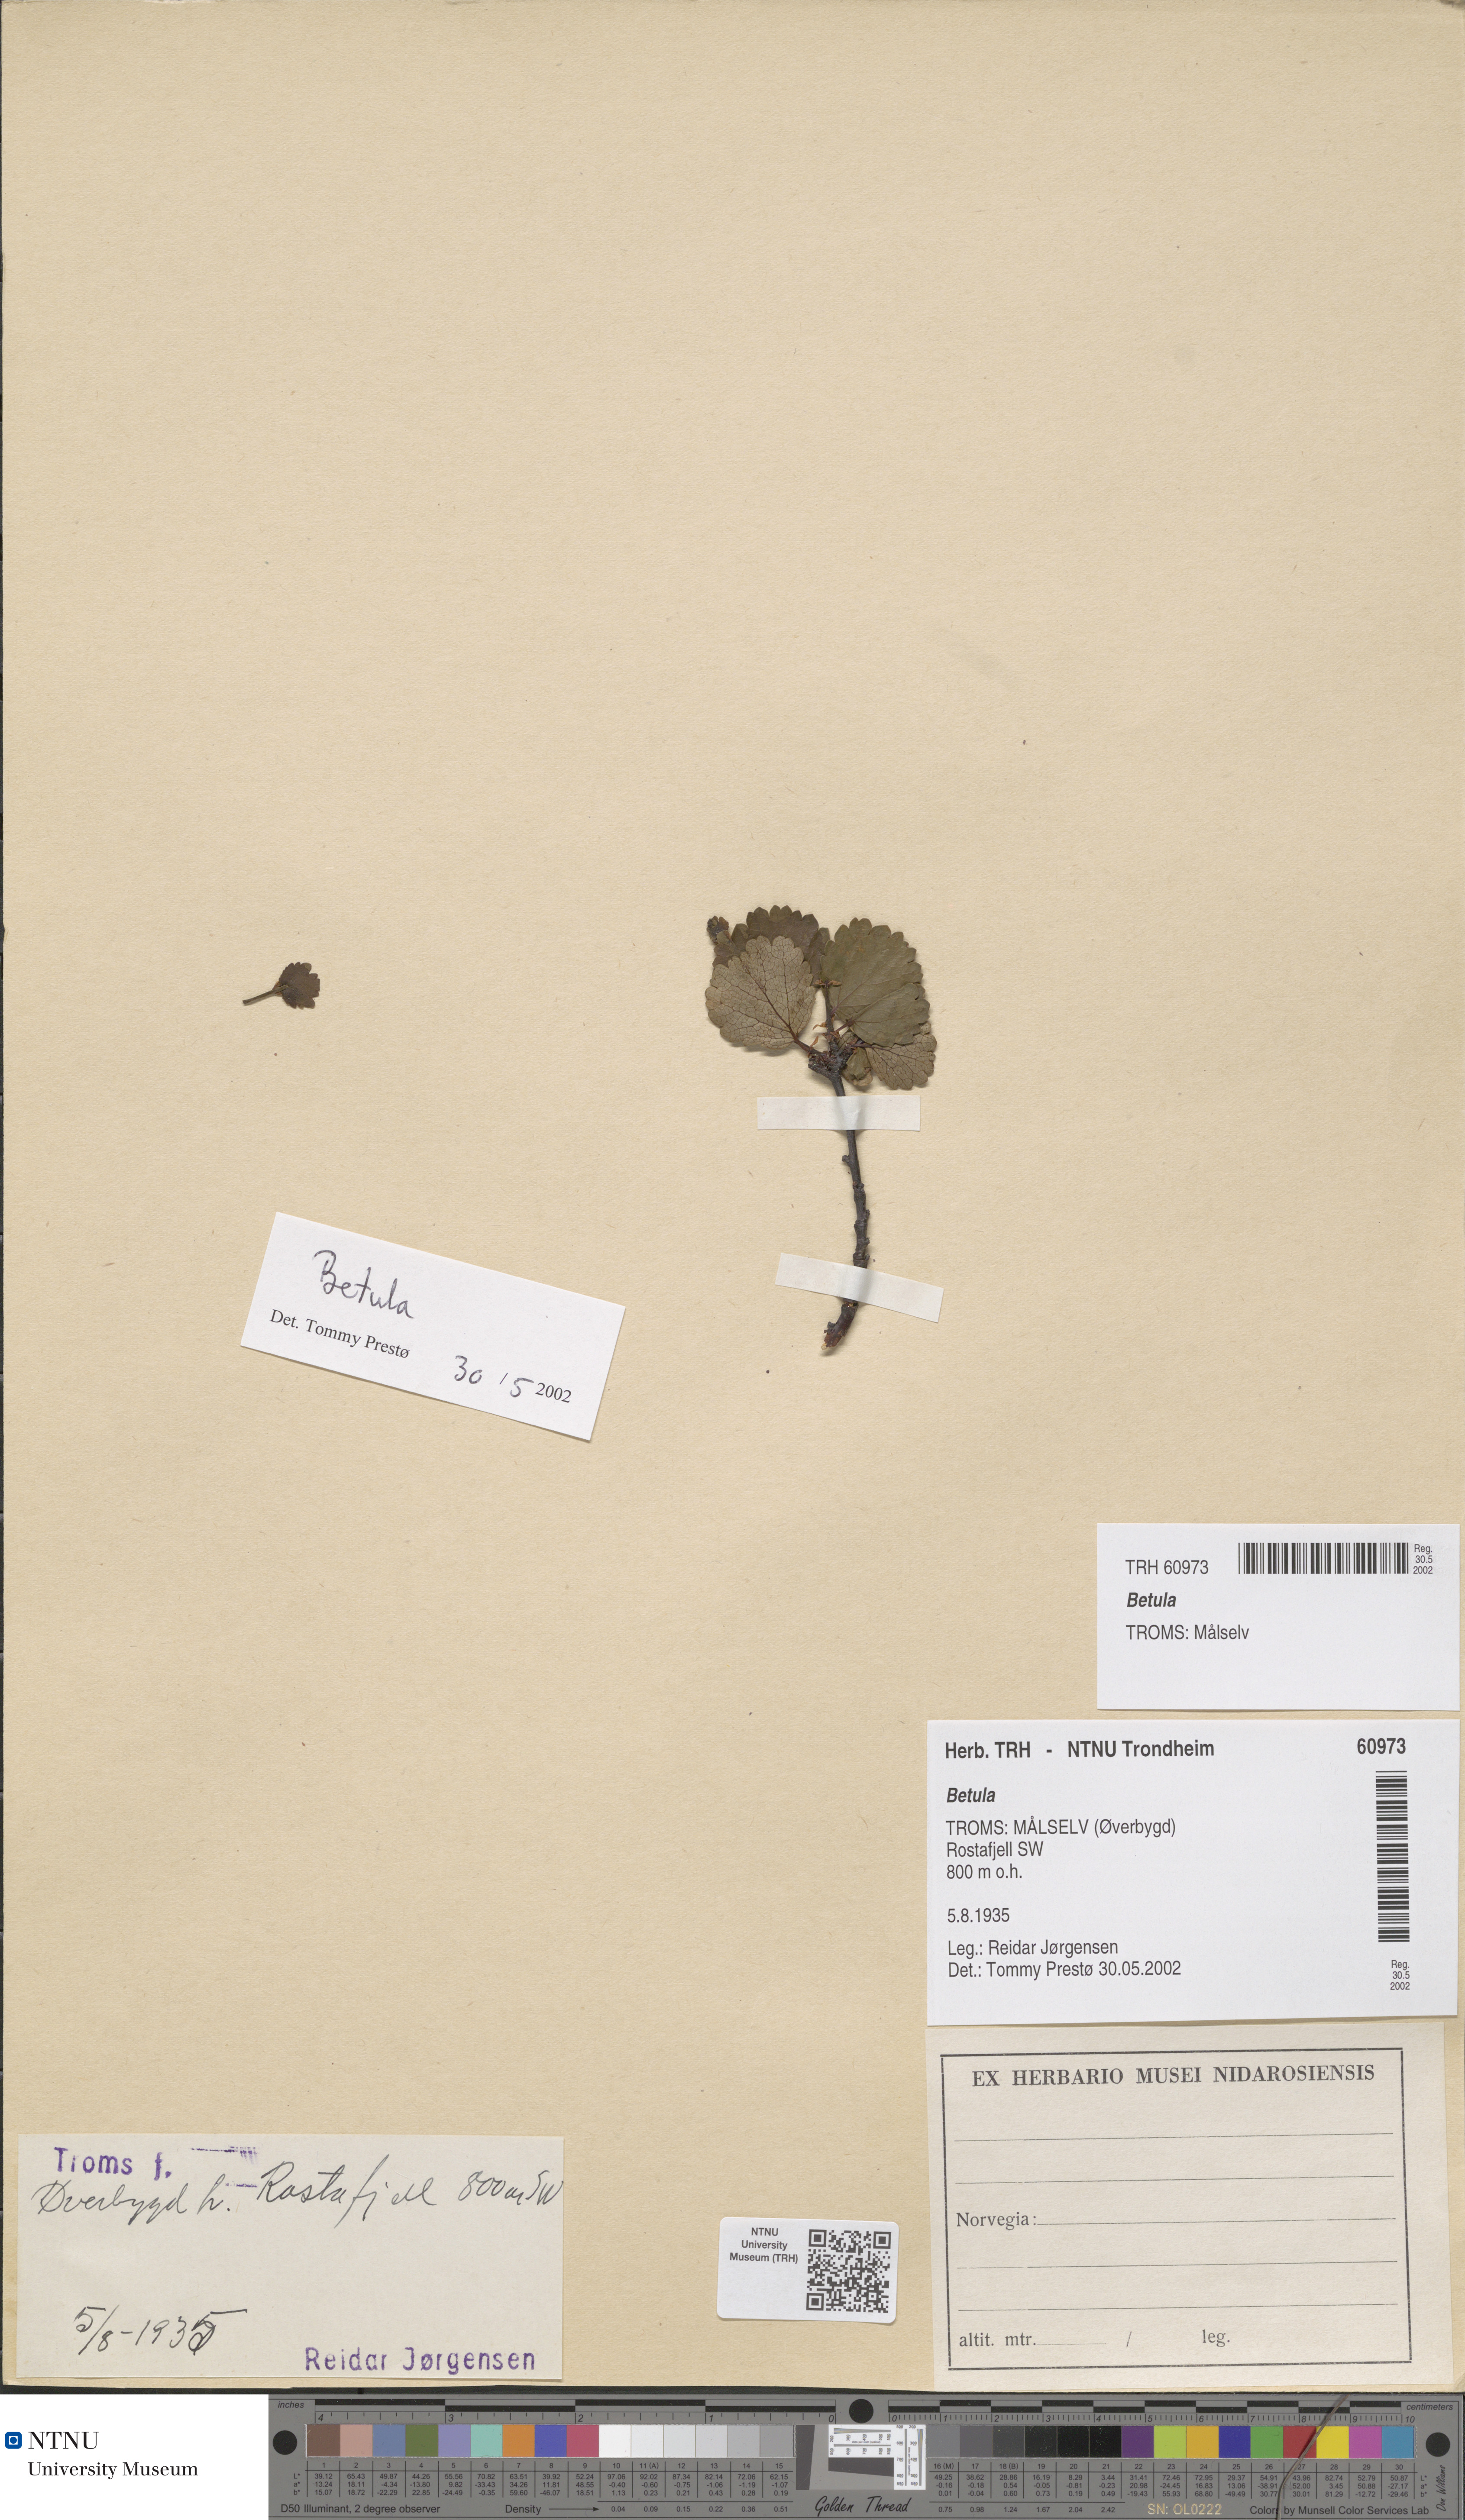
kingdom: Plantae
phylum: Tracheophyta
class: Magnoliopsida
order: Fagales
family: Betulaceae
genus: Betula
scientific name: Betula
